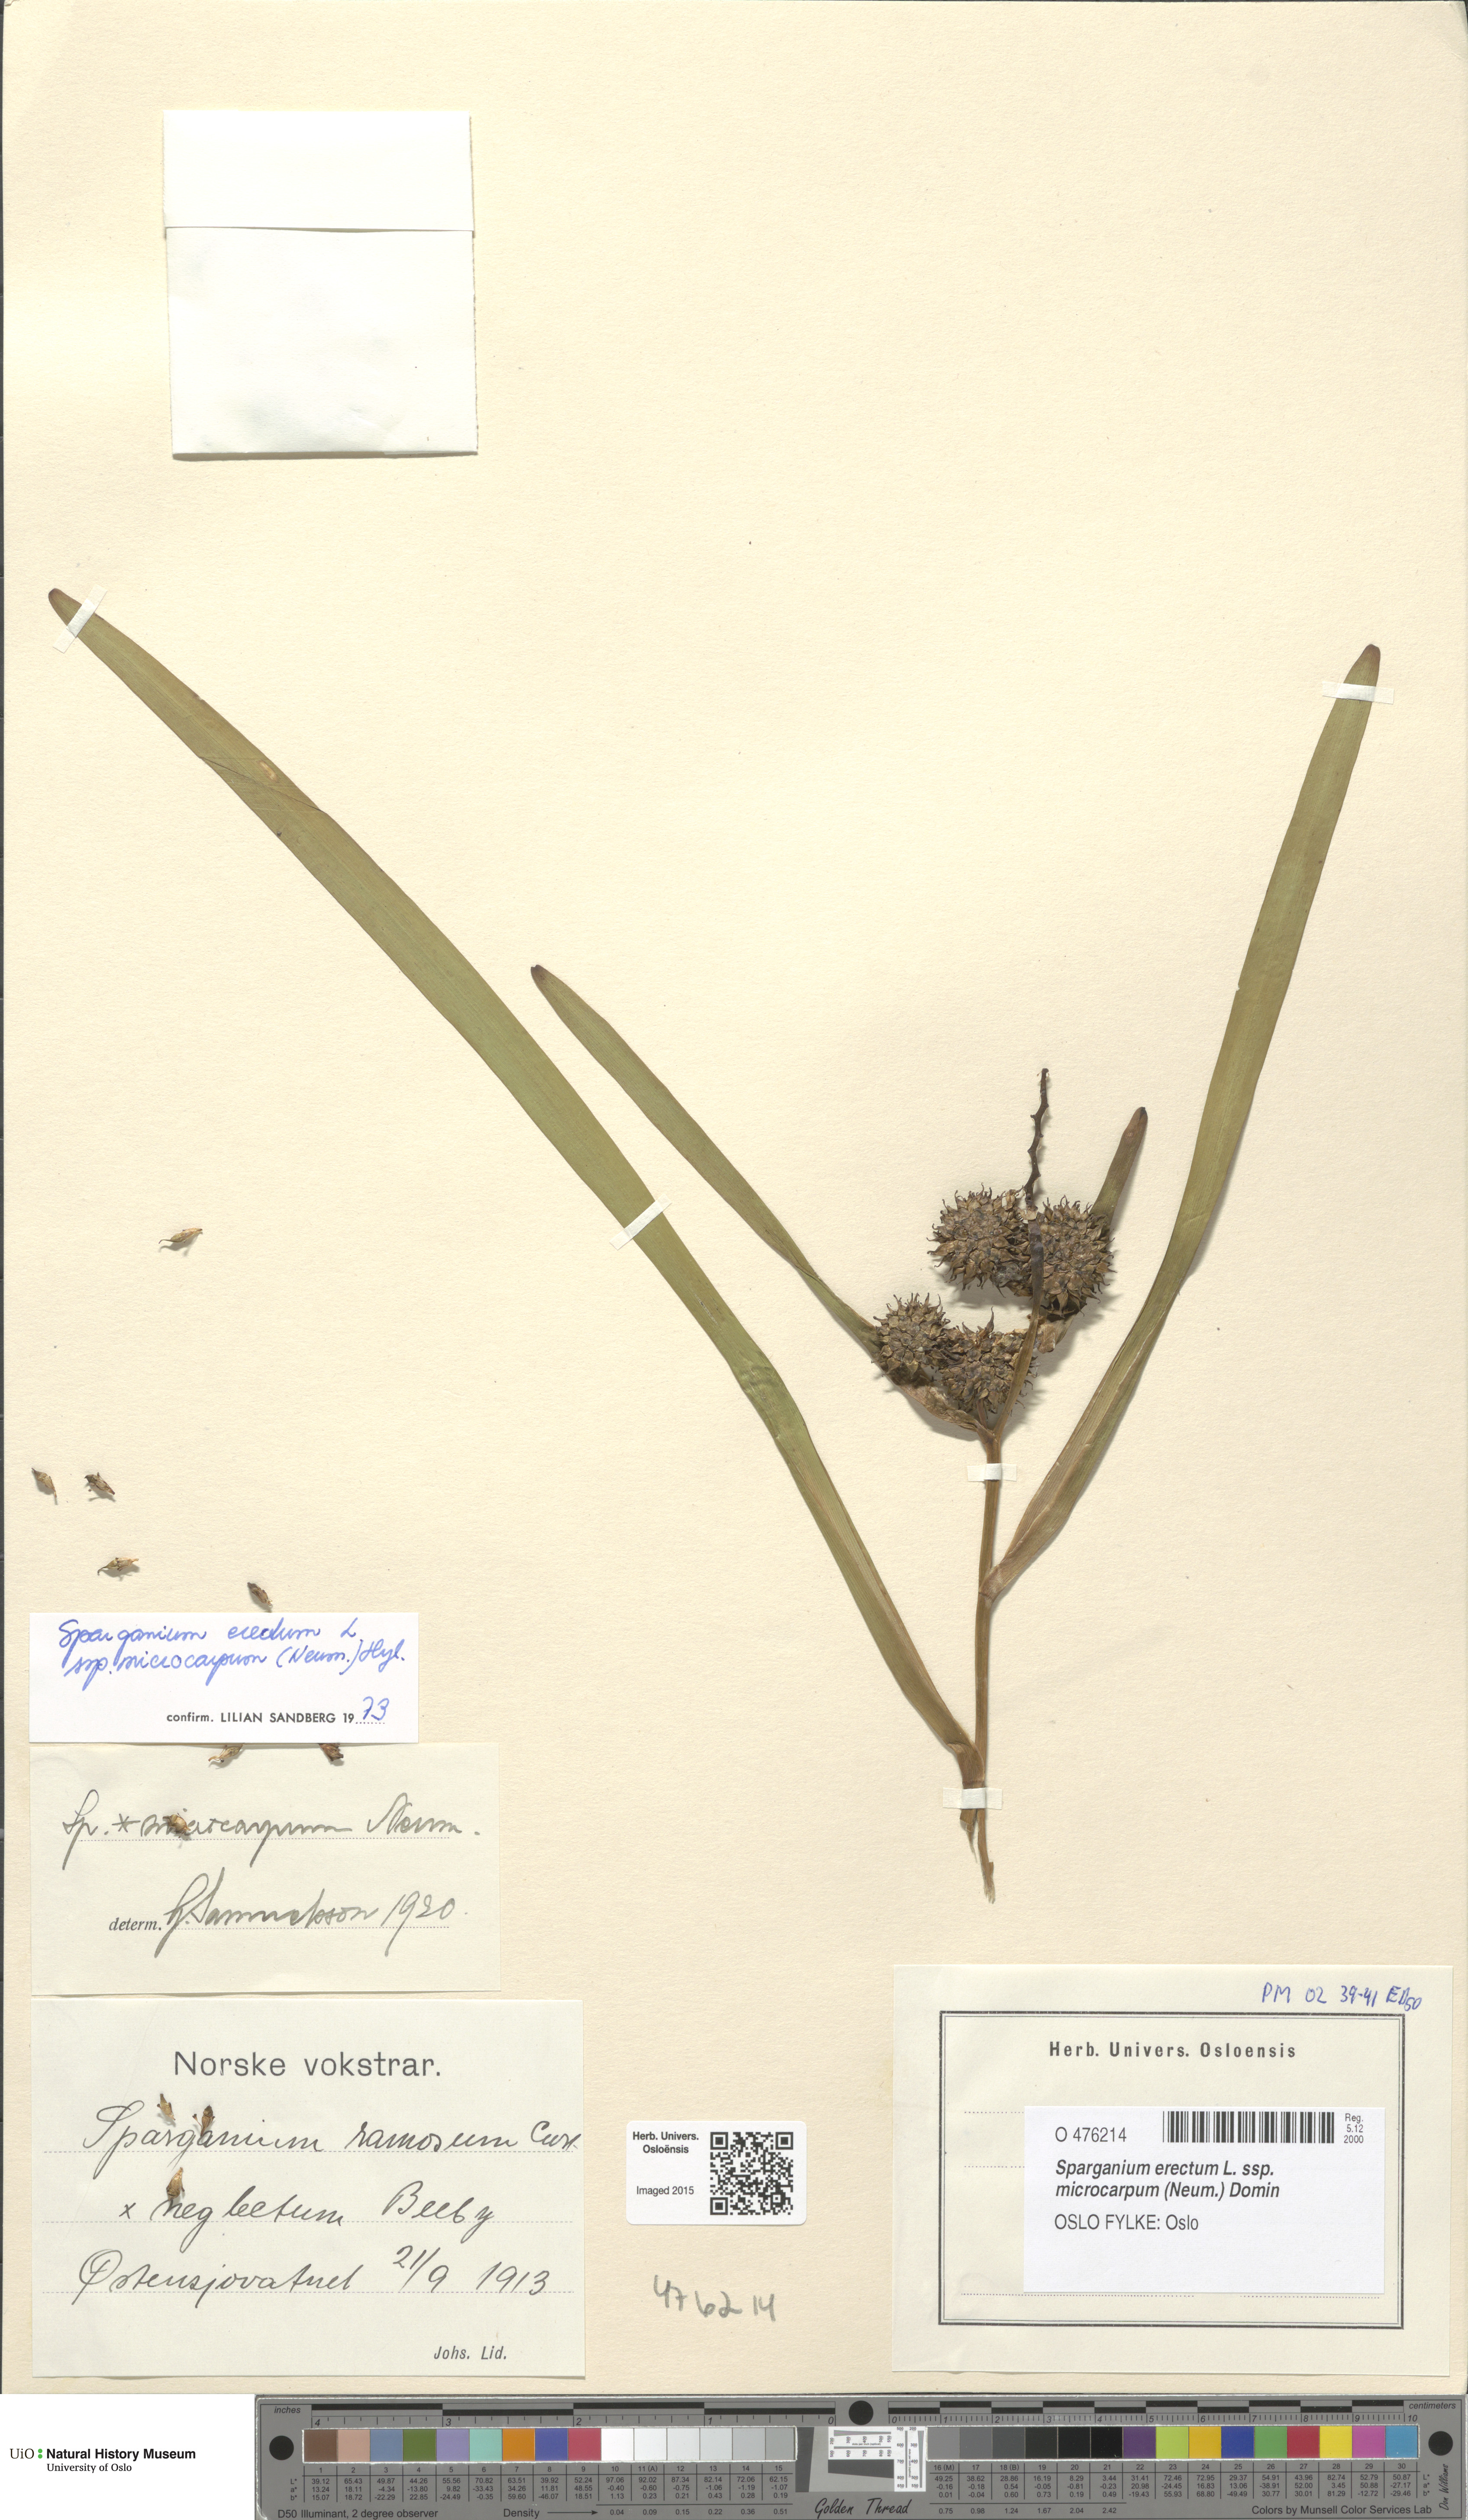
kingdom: Plantae
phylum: Tracheophyta
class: Liliopsida
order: Poales
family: Typhaceae
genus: Sparganium
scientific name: Sparganium erectum
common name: Branched bur-reed
